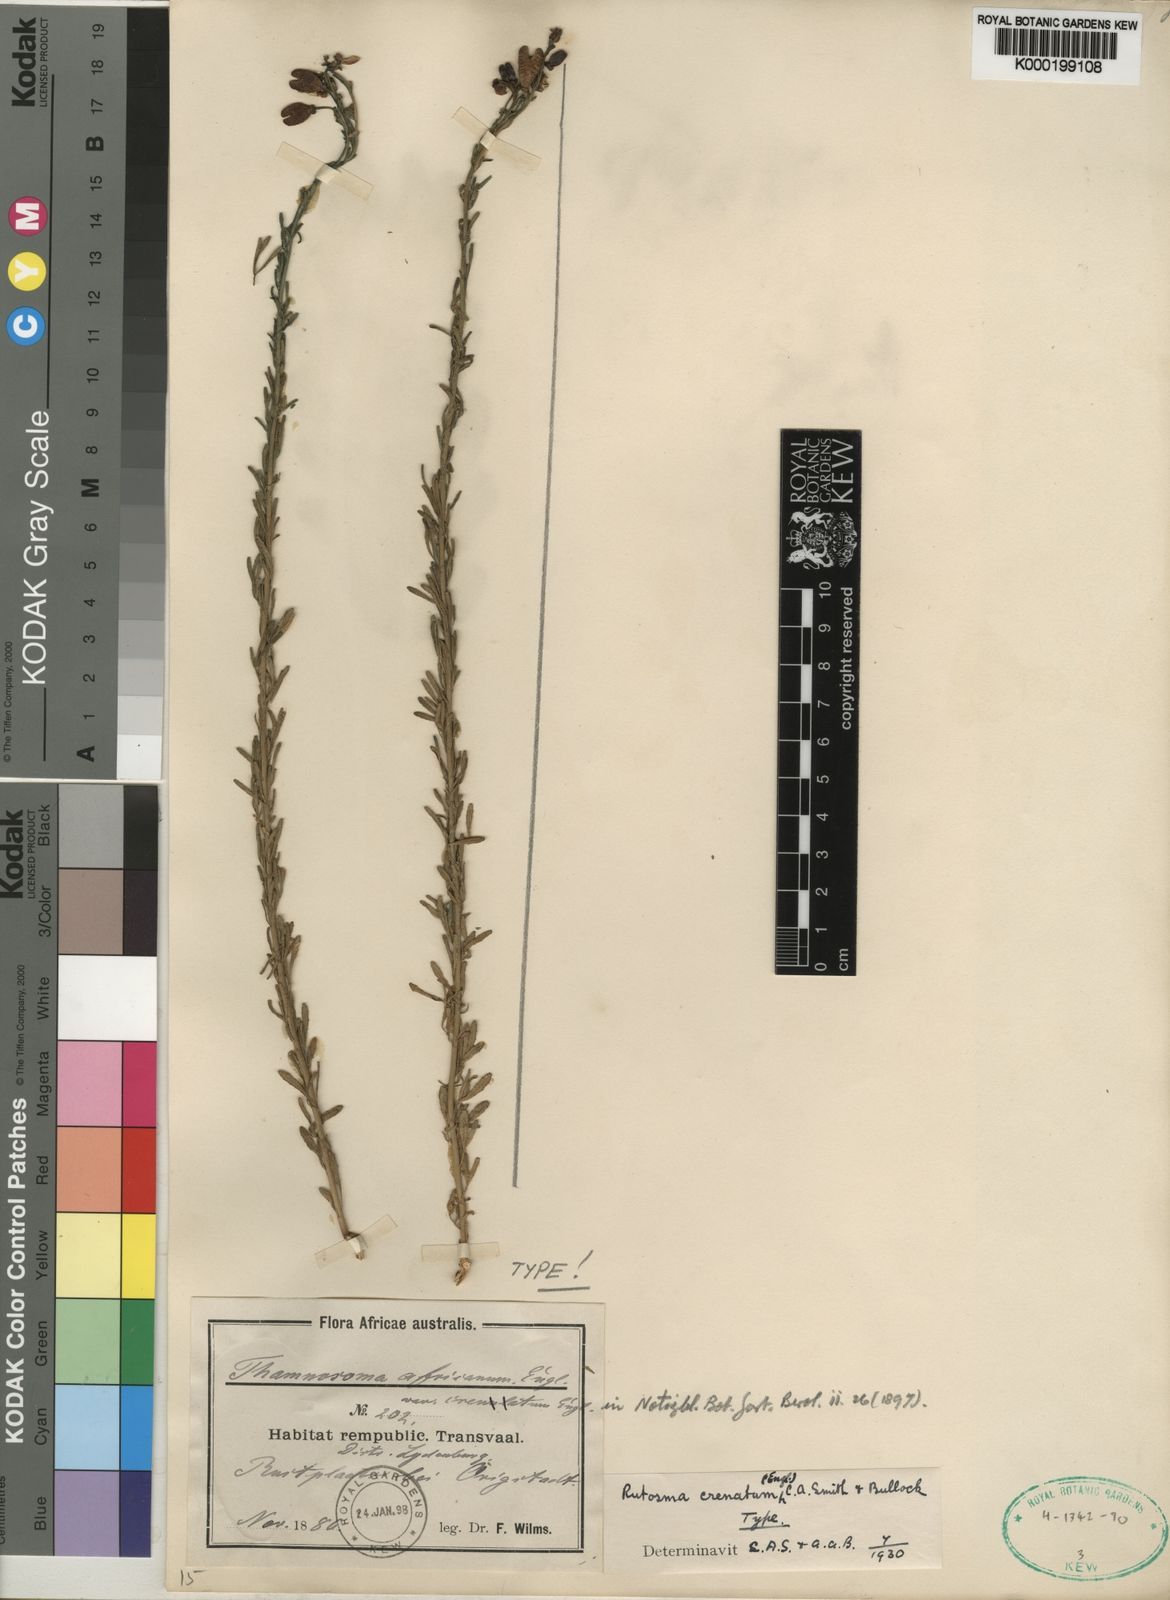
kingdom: Plantae
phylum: Tracheophyta
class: Magnoliopsida
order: Sapindales
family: Rutaceae
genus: Thamnosma
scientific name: Thamnosma
